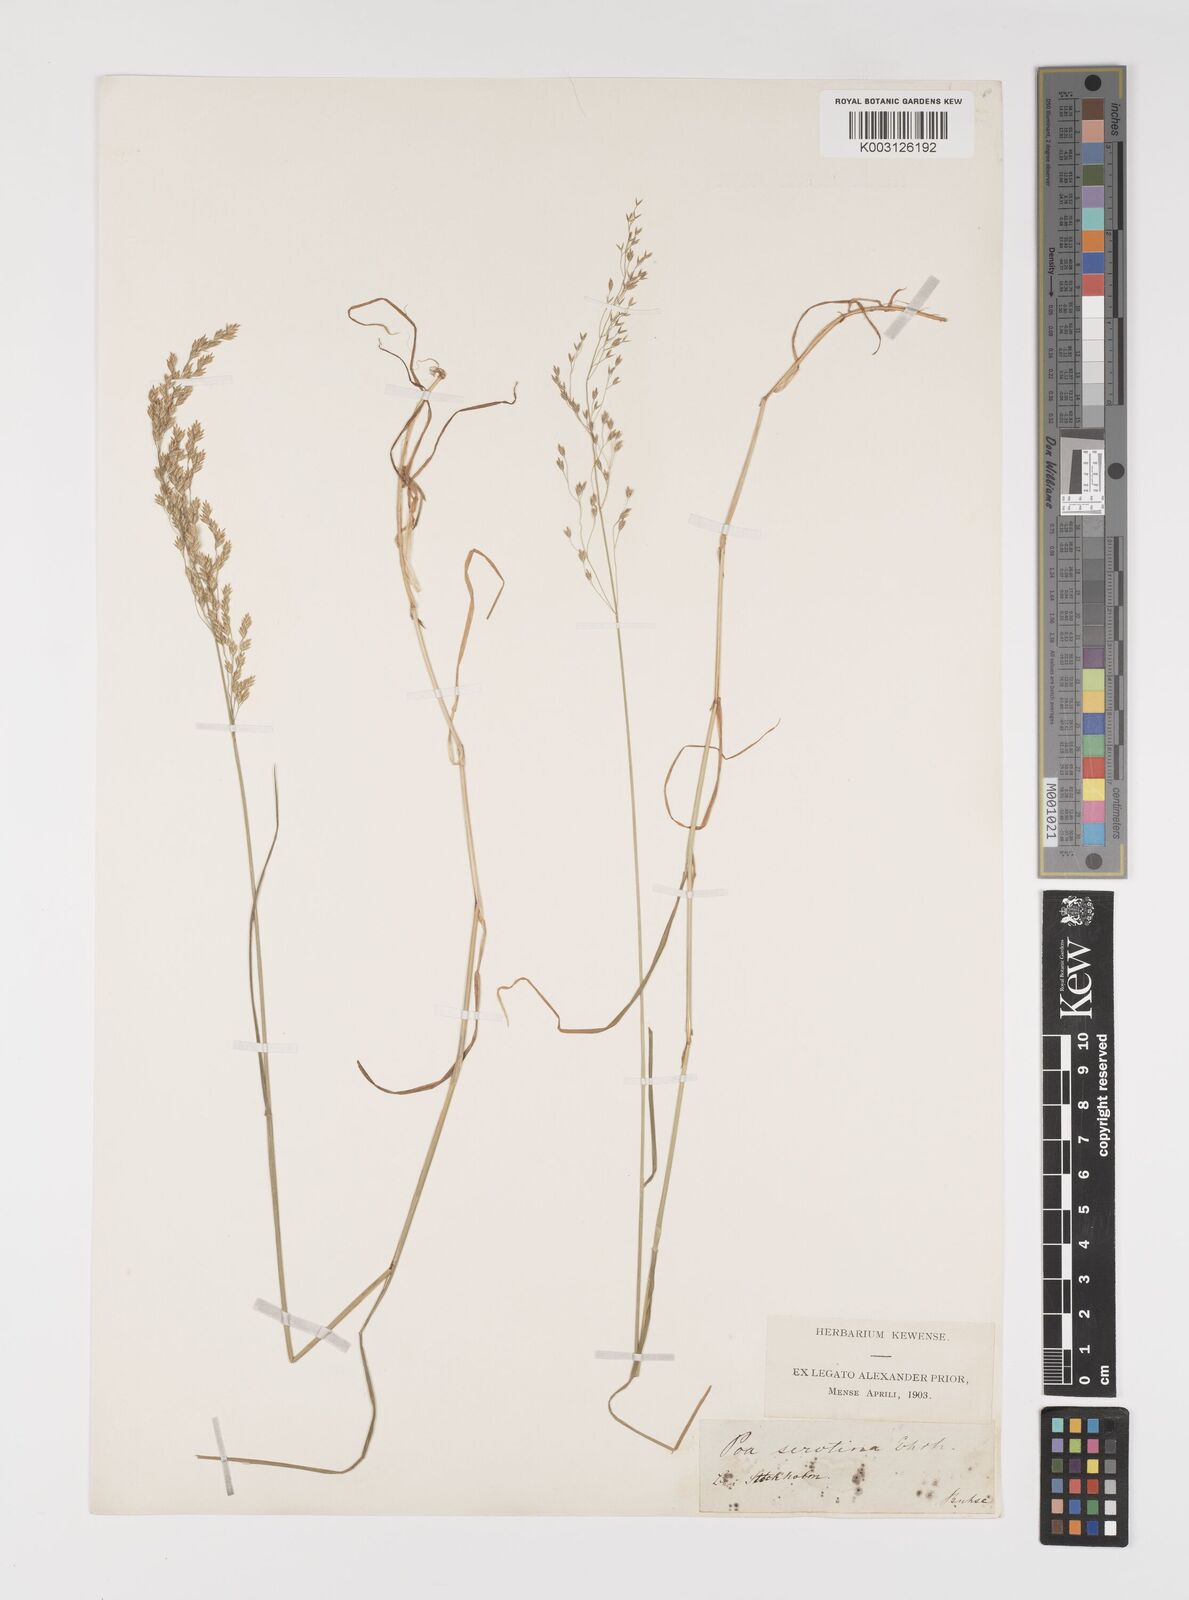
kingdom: Plantae
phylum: Tracheophyta
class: Liliopsida
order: Poales
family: Poaceae
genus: Poa
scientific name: Poa palustris
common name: Swamp meadow-grass
